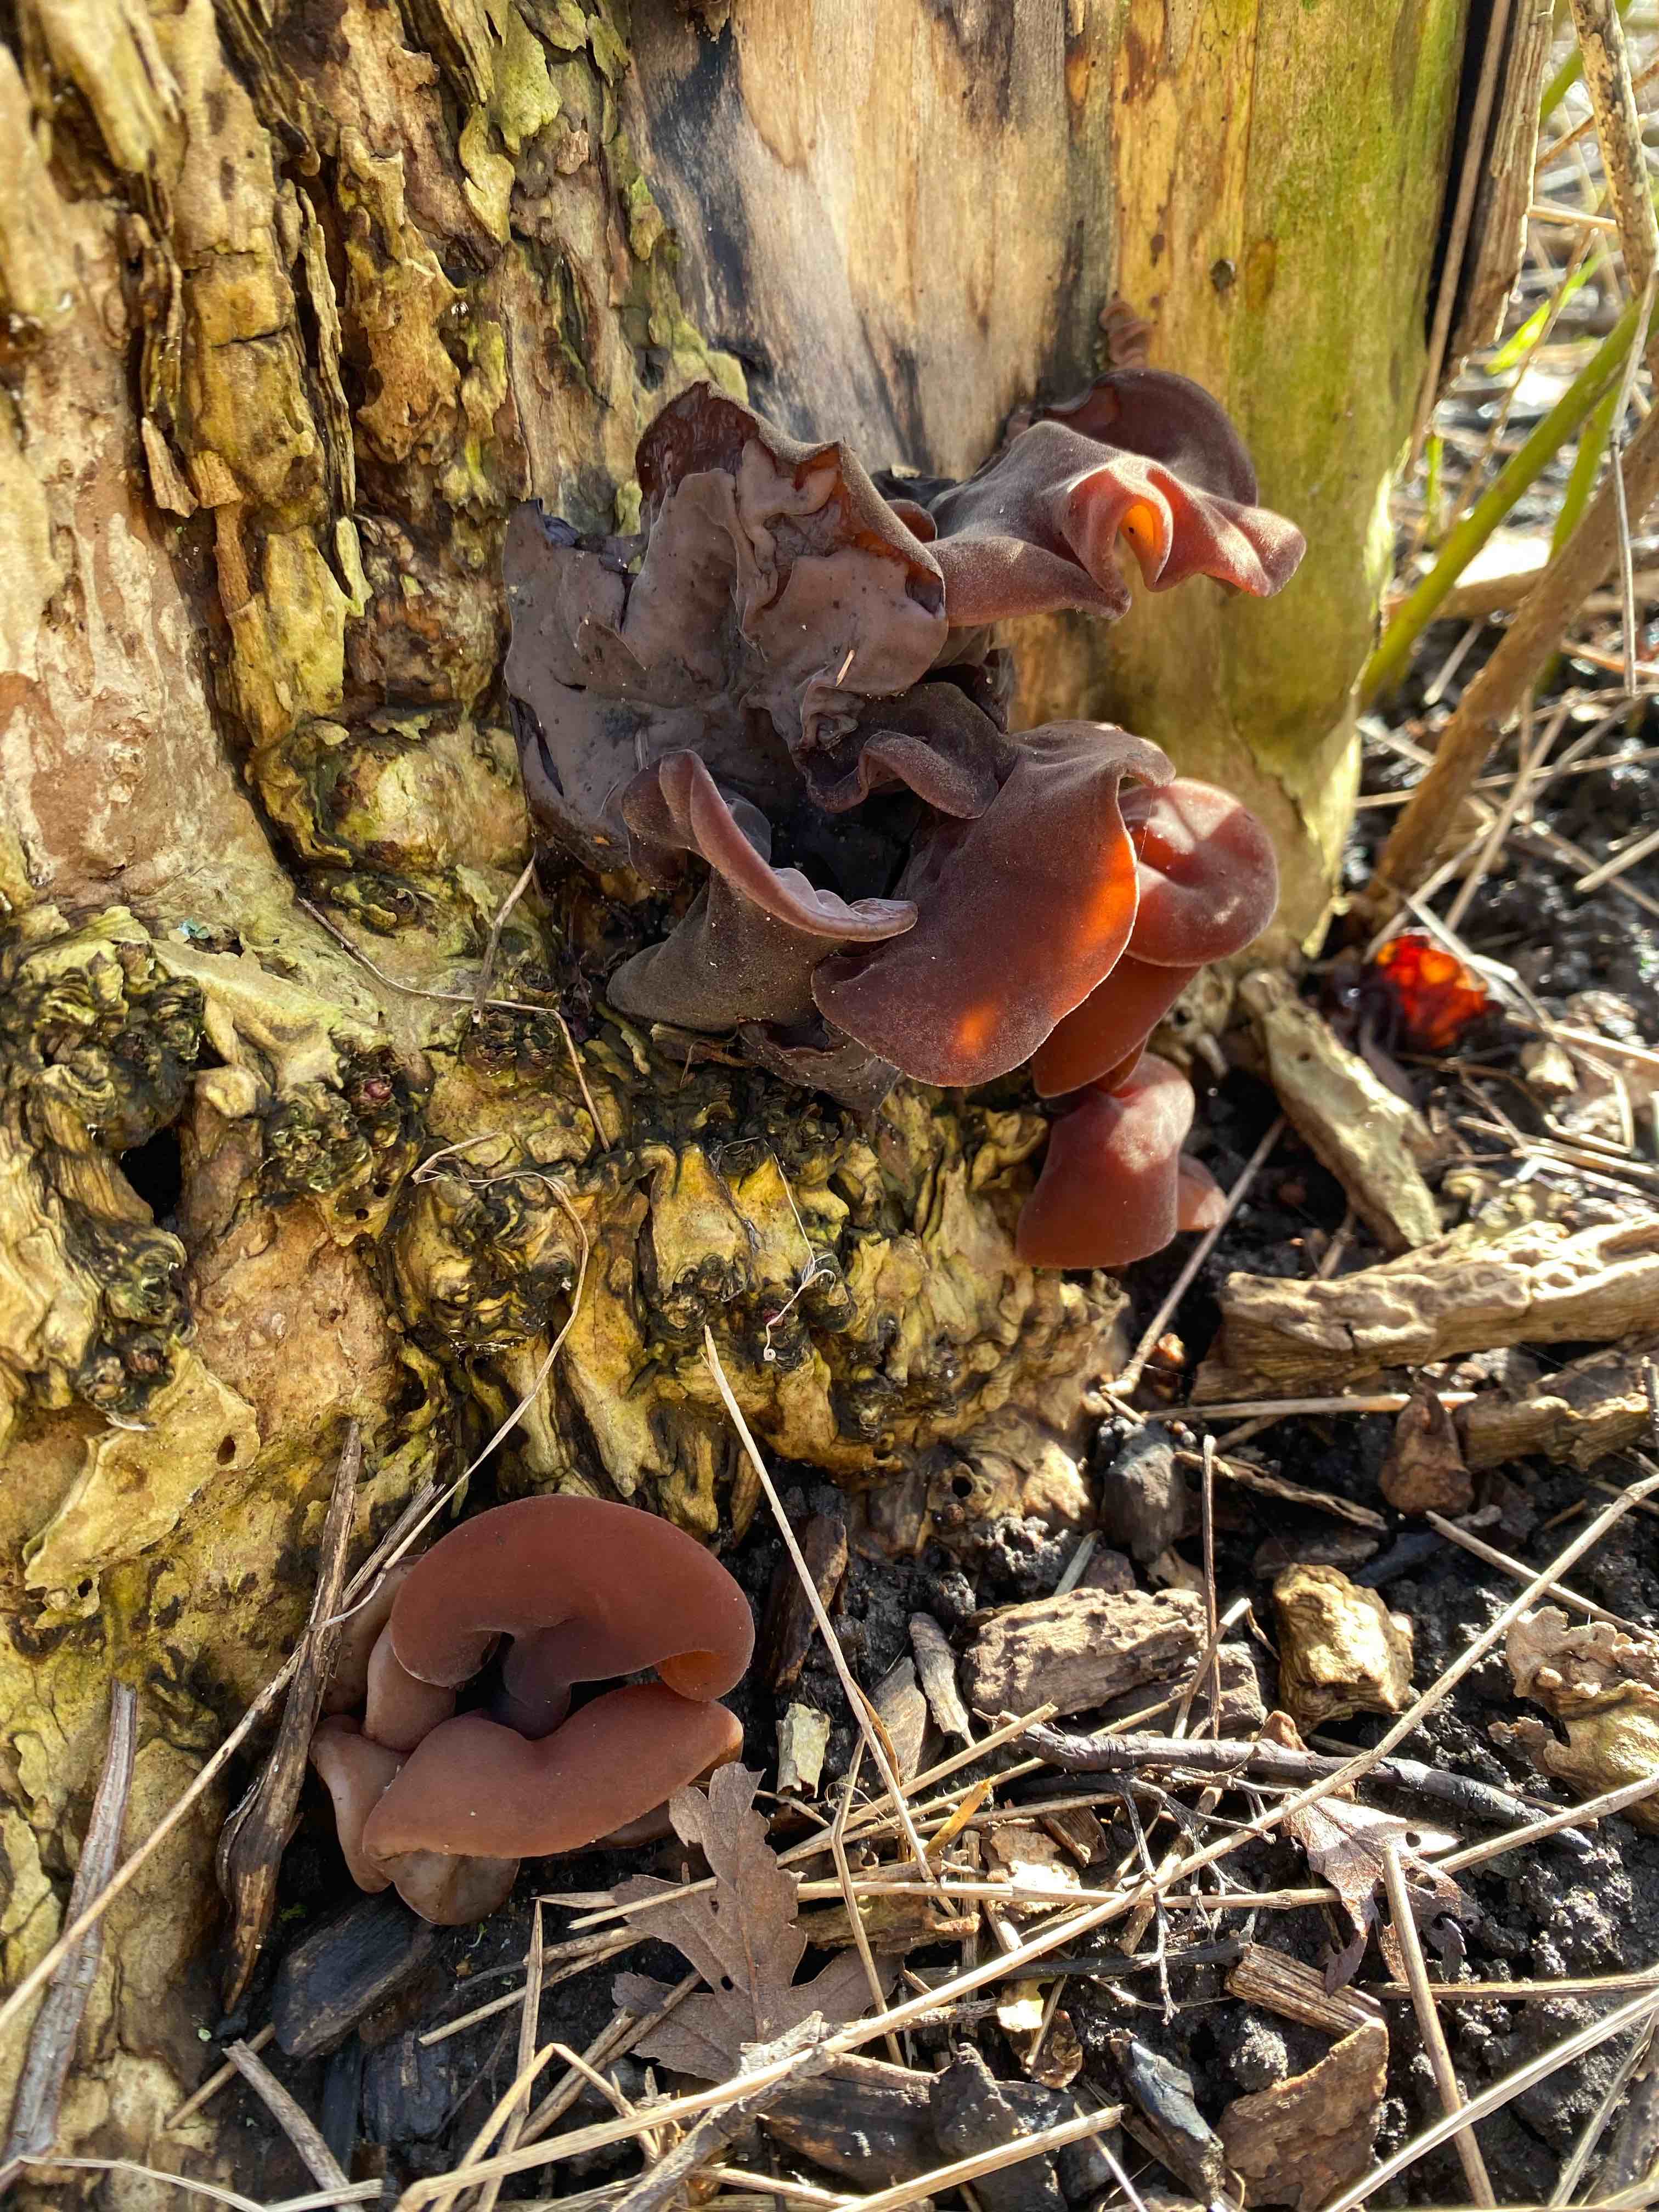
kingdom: Fungi
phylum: Basidiomycota
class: Agaricomycetes
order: Auriculariales
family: Auriculariaceae
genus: Auricularia
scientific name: Auricularia auricula-judae
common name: almindelig judasøre
